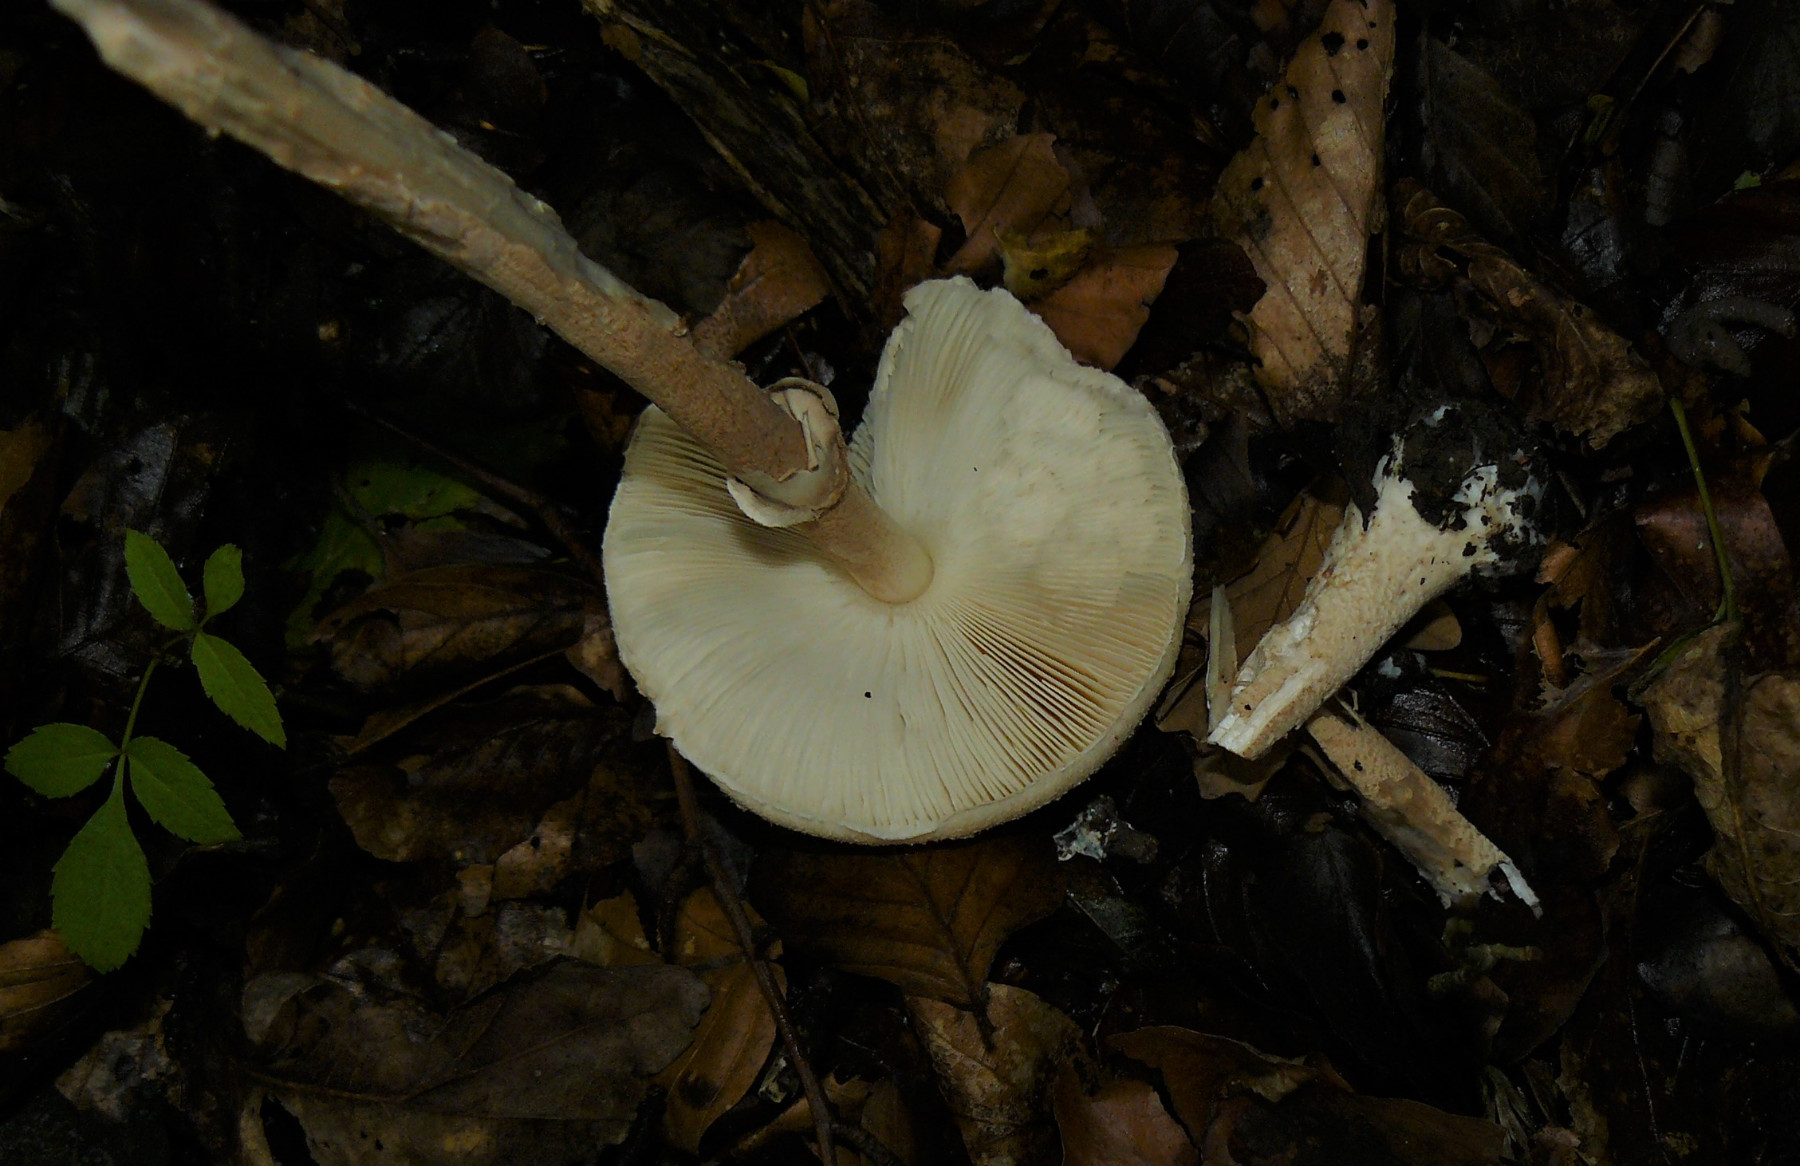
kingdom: Fungi
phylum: Basidiomycota
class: Agaricomycetes
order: Agaricales
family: Agaricaceae
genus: Macrolepiota
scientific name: Macrolepiota mastoidea
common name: puklet kæmpeparasolhat
